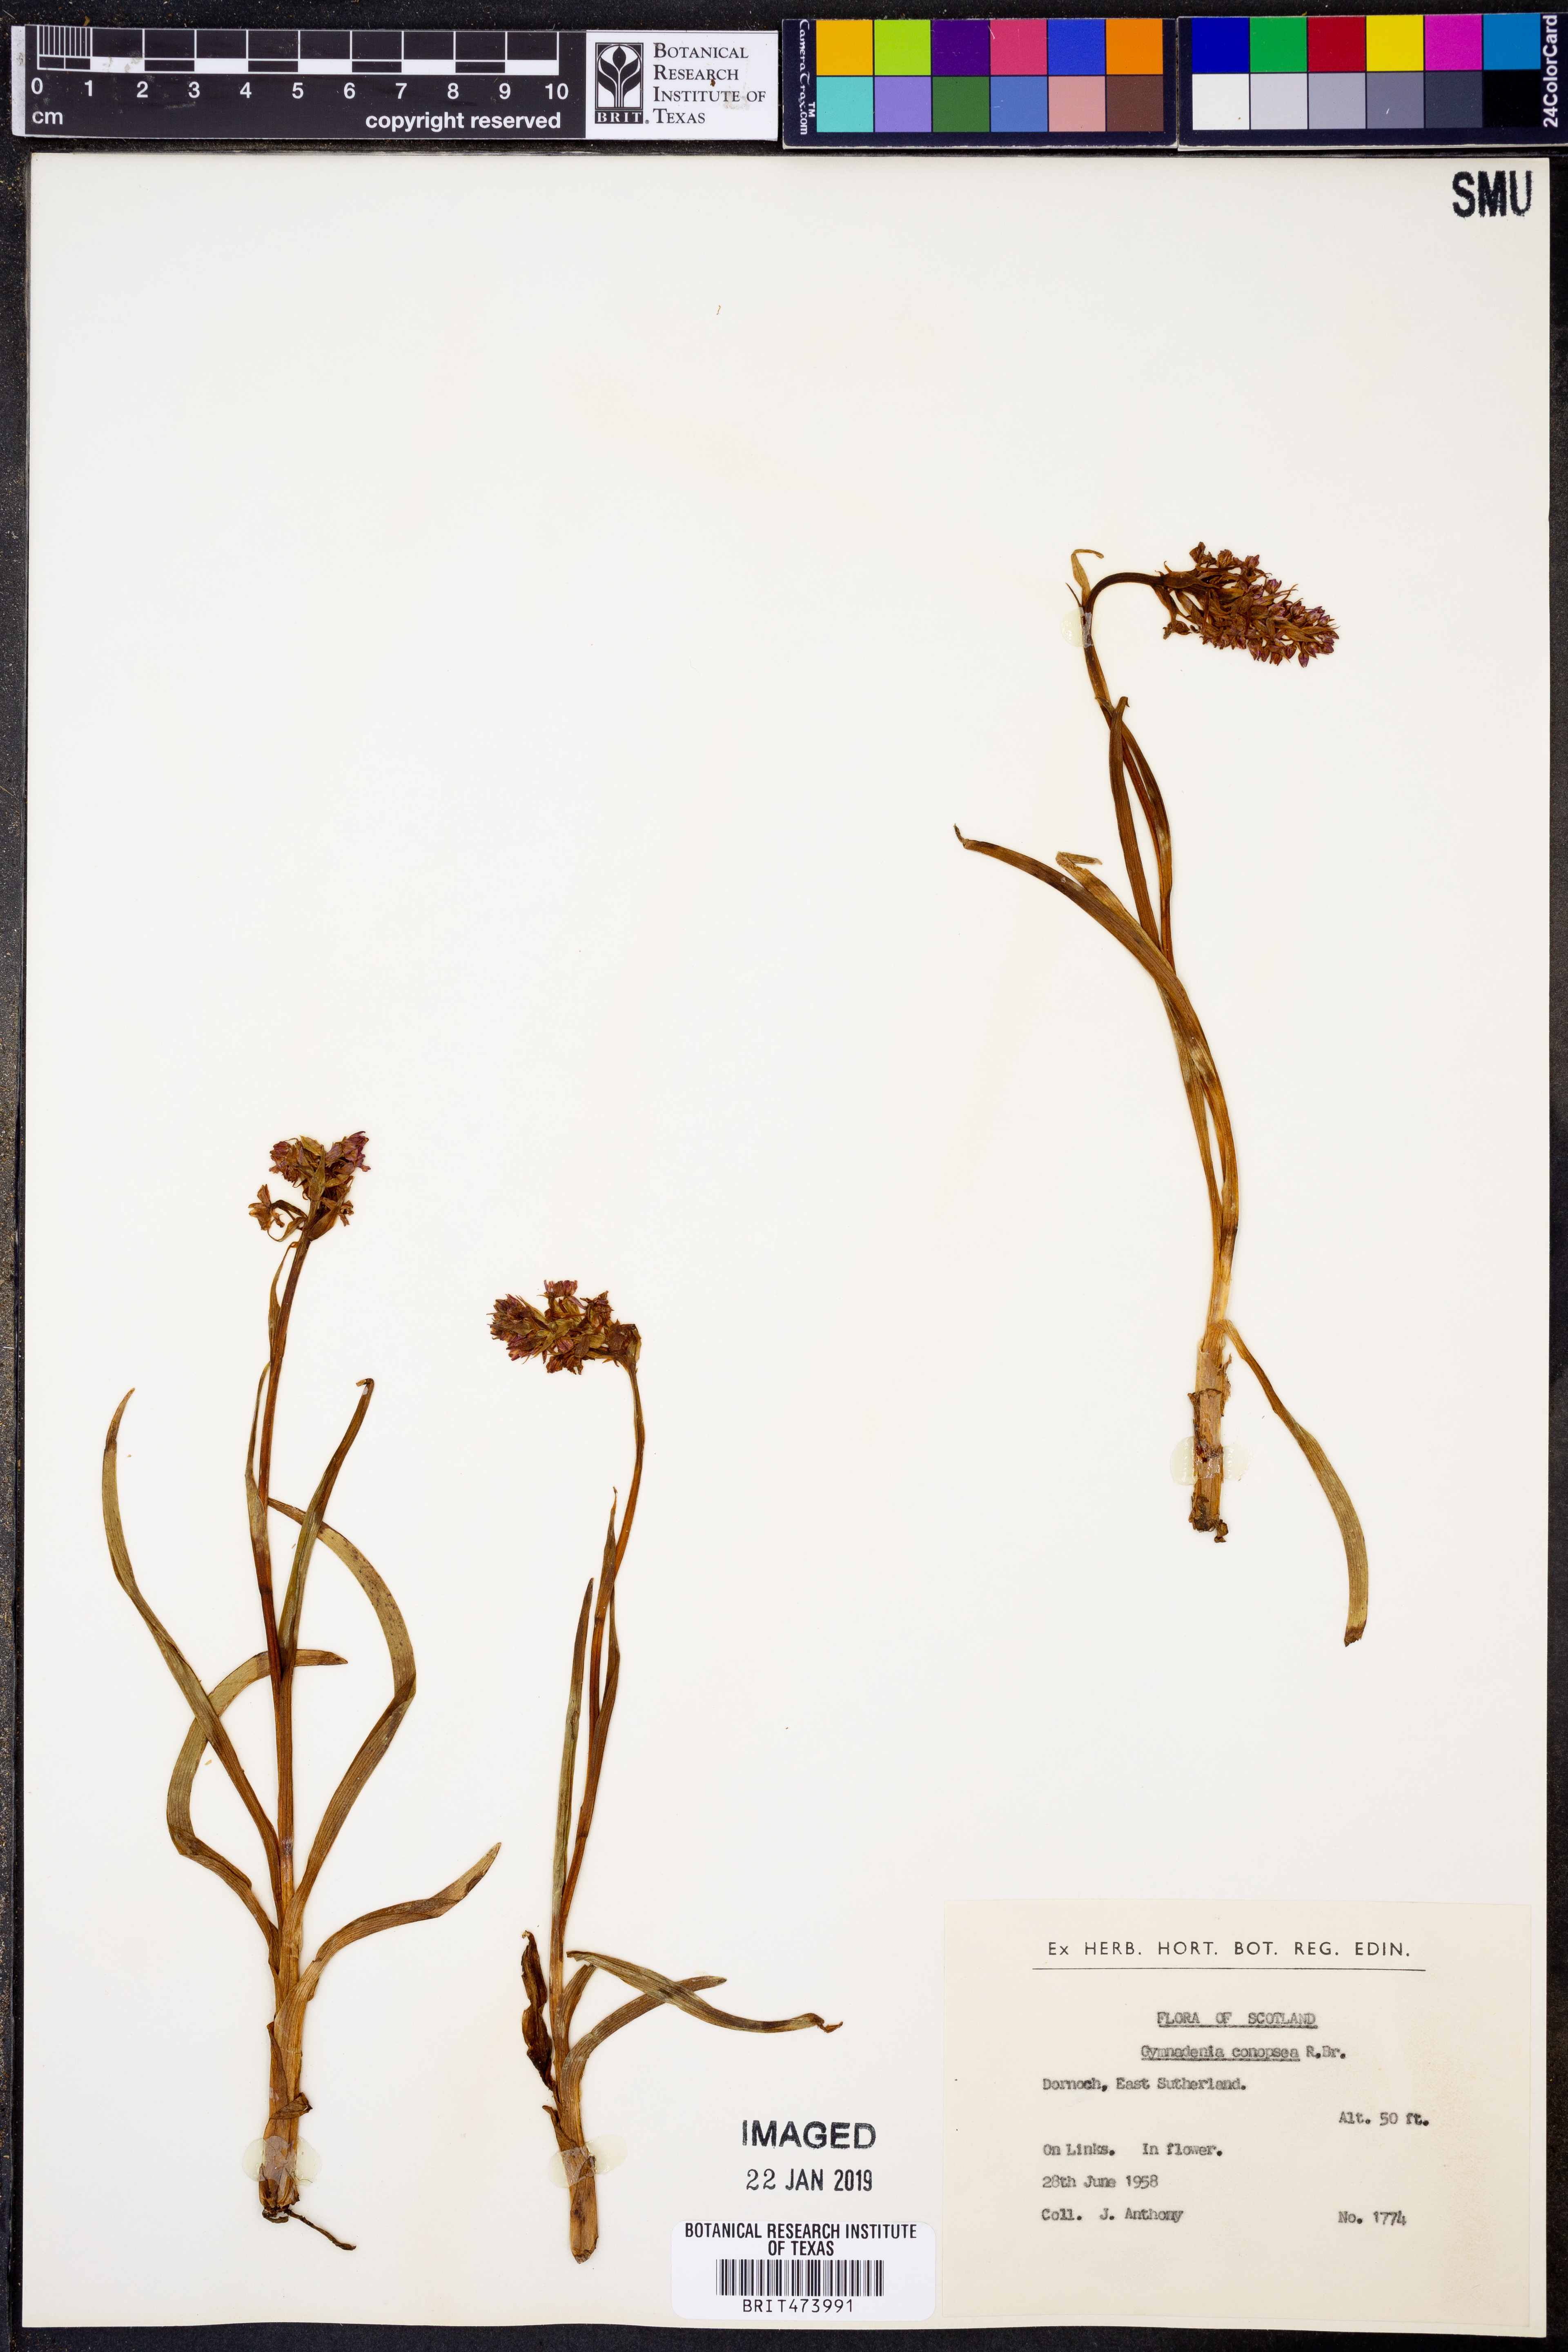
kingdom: Plantae
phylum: Tracheophyta
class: Liliopsida
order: Asparagales
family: Orchidaceae
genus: Gymnadenia
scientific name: Gymnadenia conopsea
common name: Fragrant orchid
